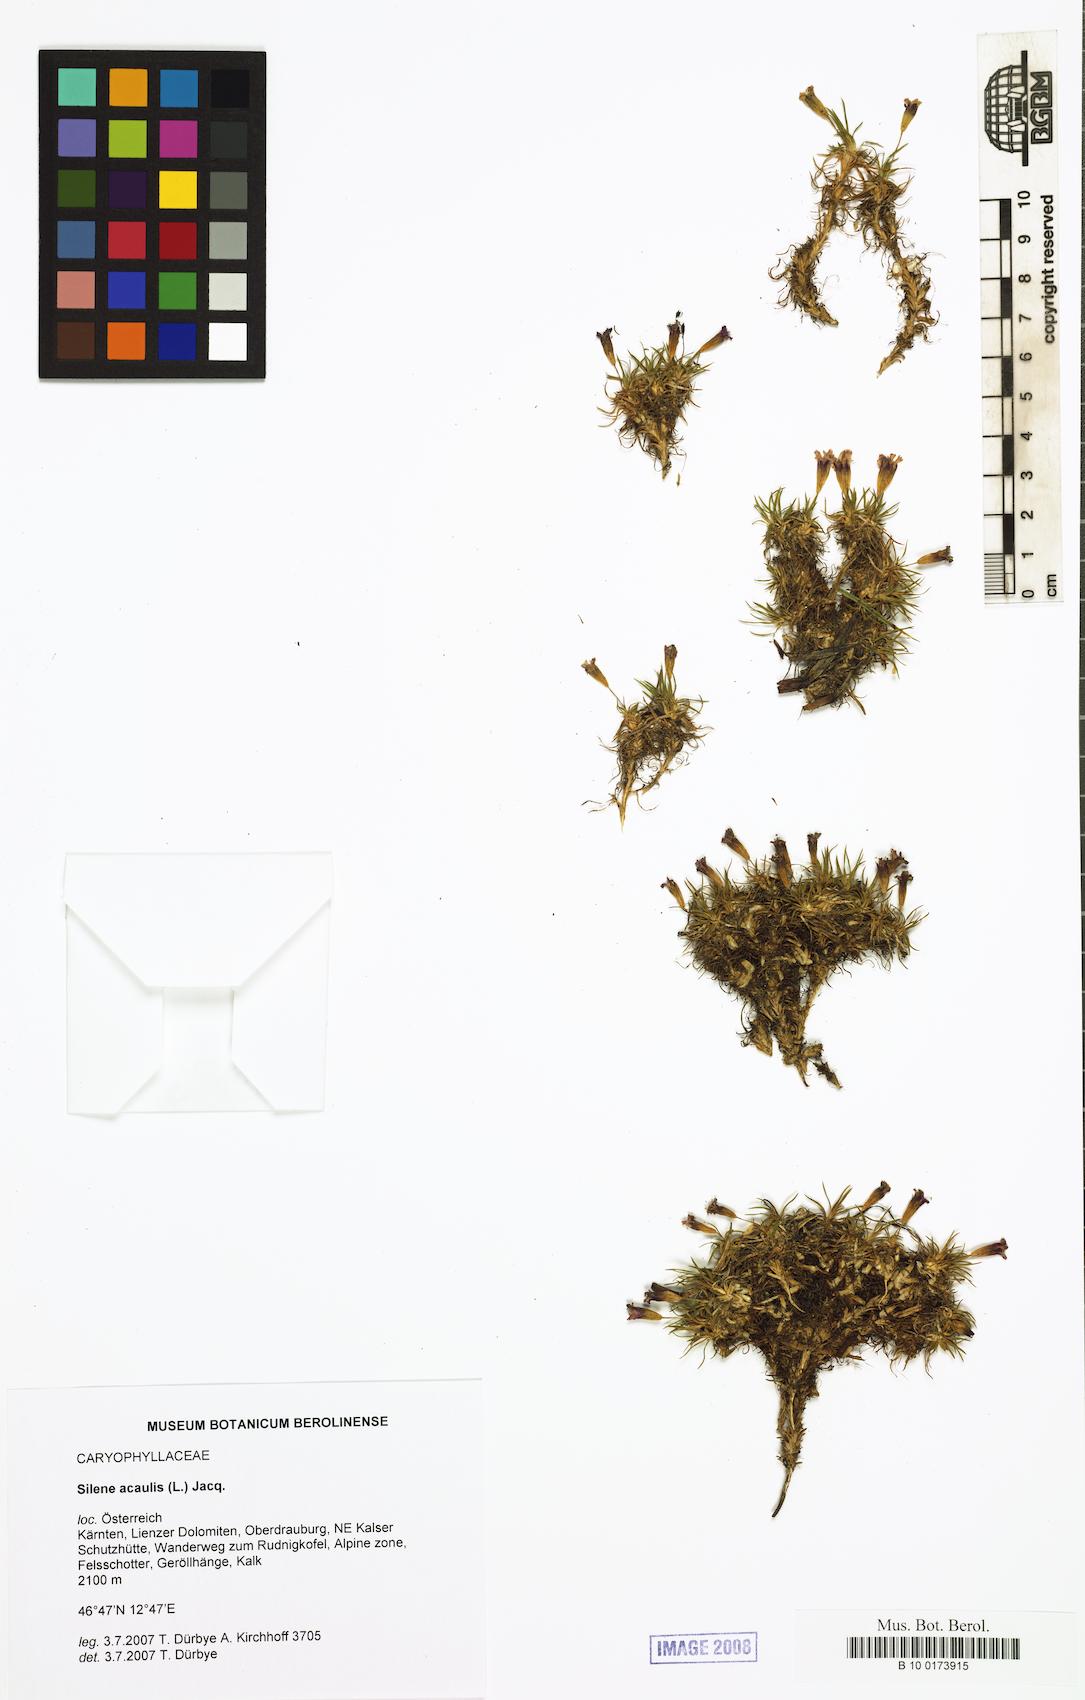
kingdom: Plantae
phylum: Tracheophyta
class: Magnoliopsida
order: Caryophyllales
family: Caryophyllaceae
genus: Silene
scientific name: Silene acaulis
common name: Moss campion
